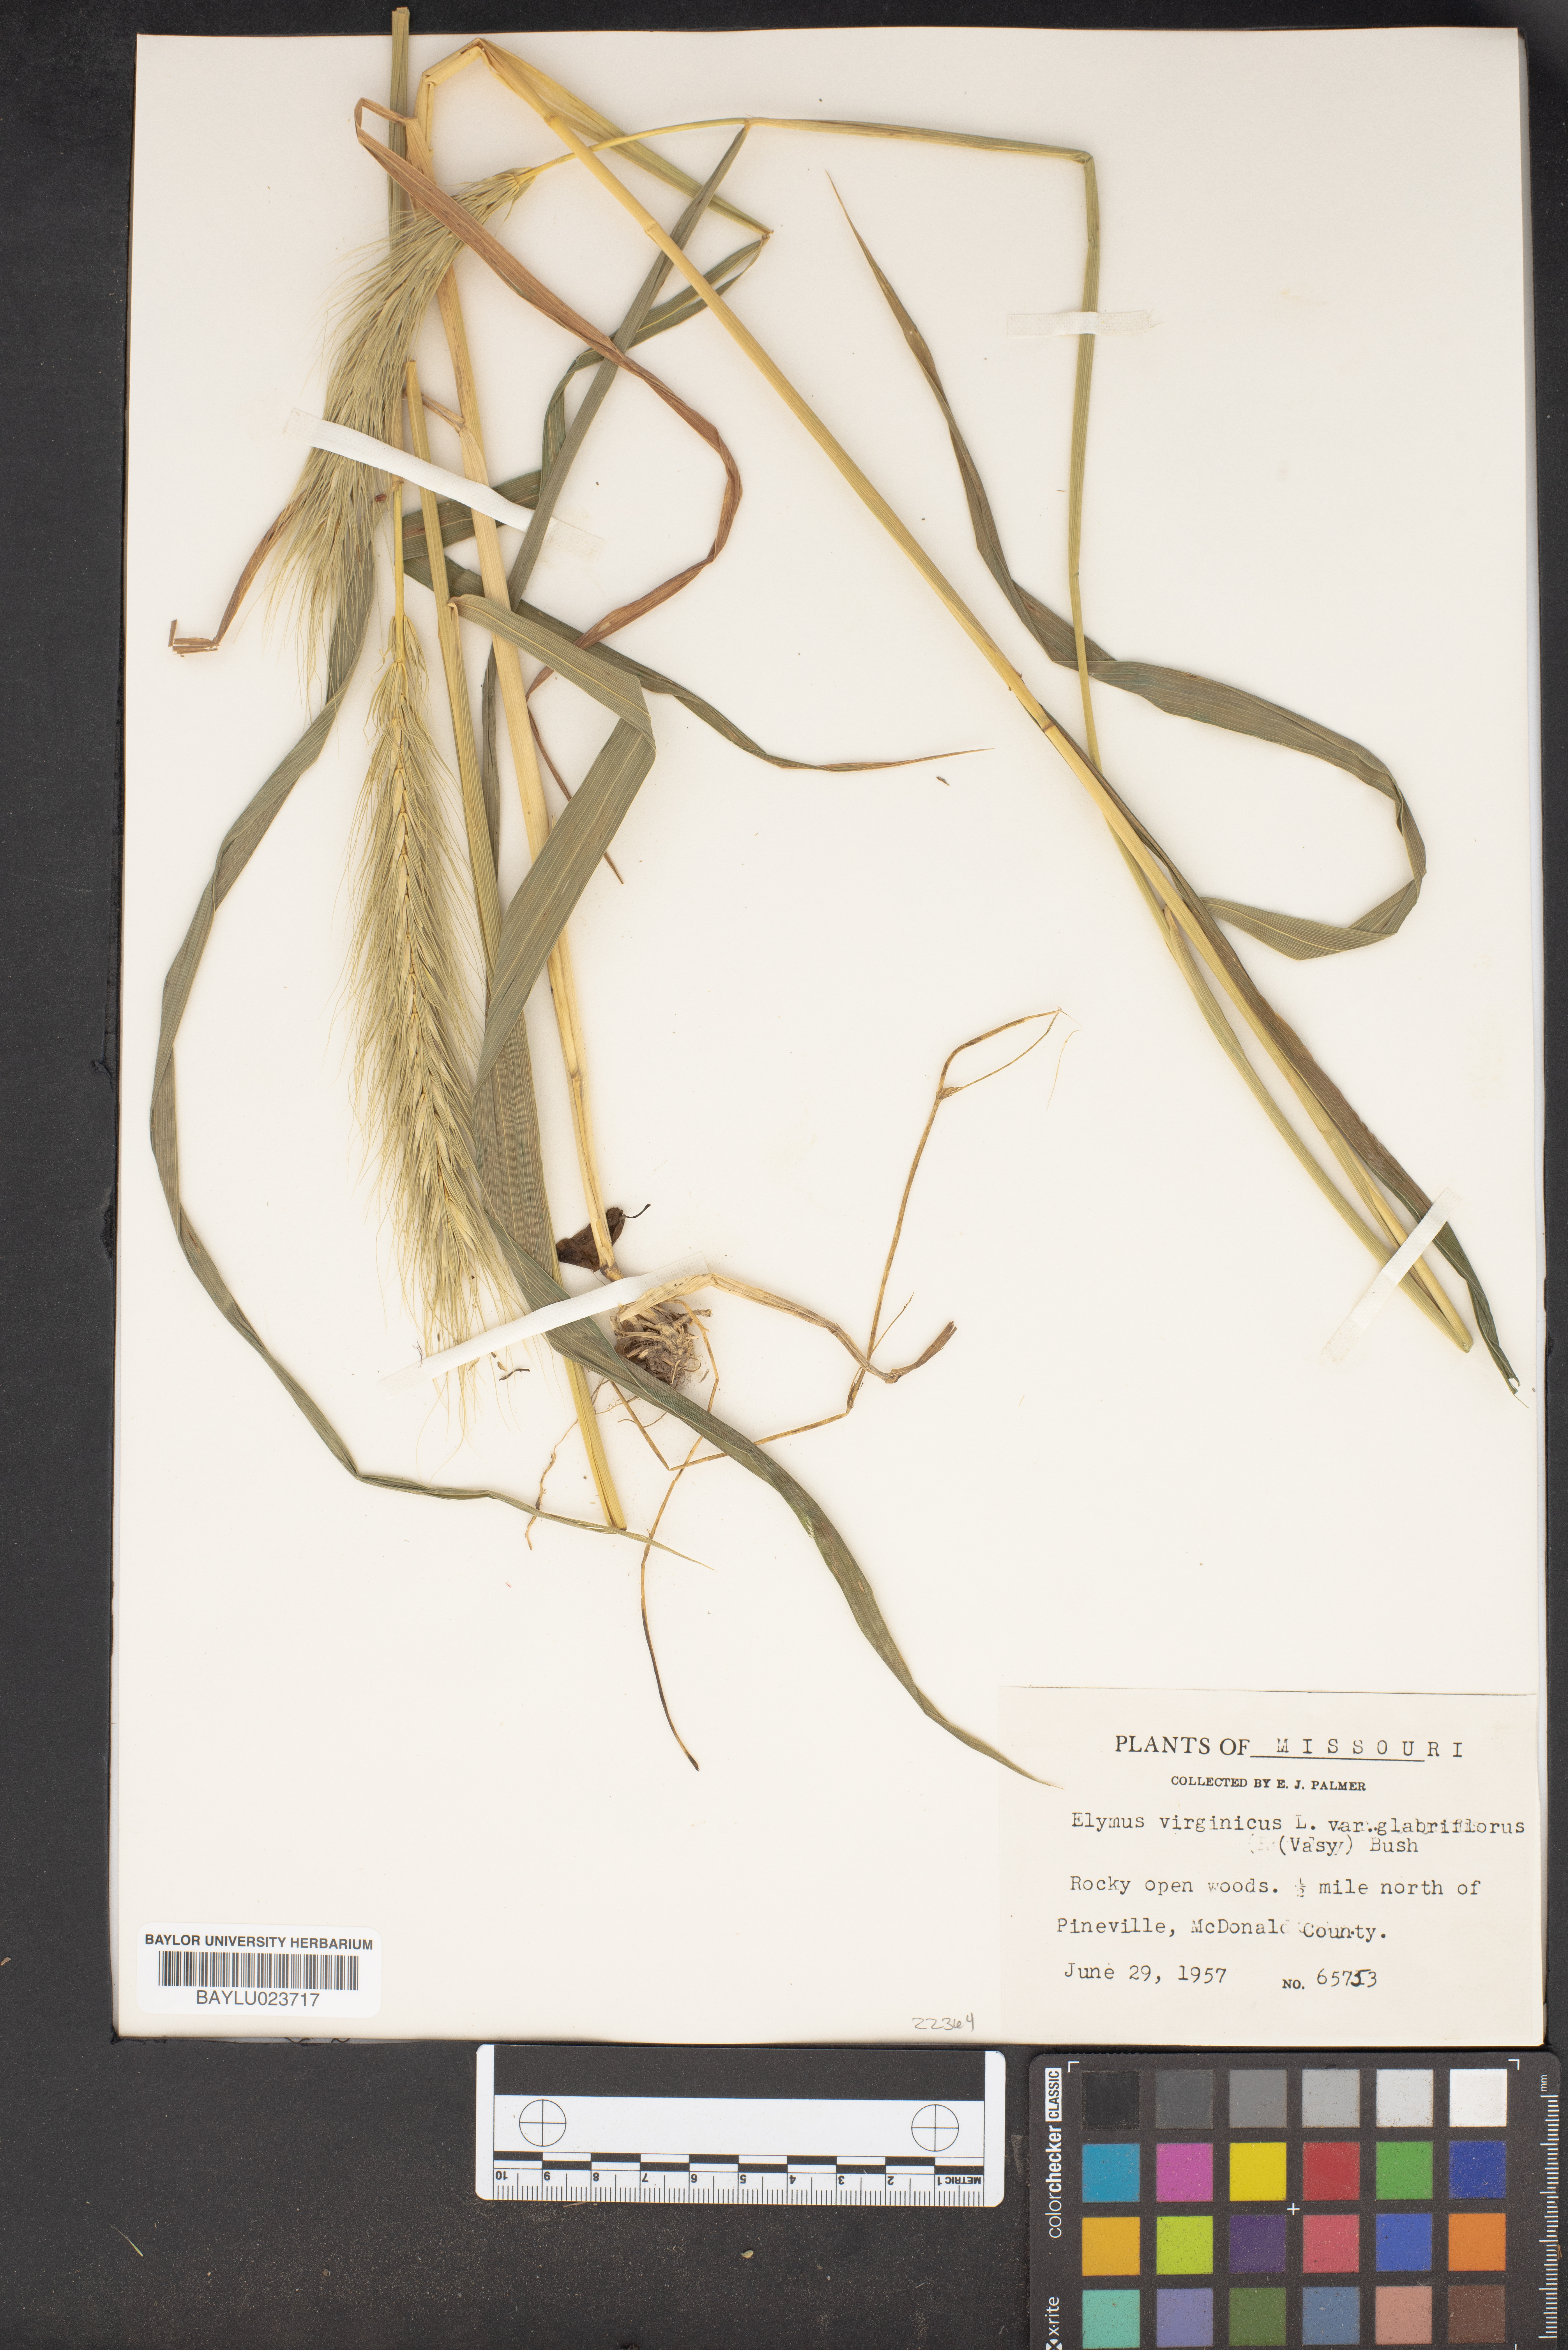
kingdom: Plantae
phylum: Tracheophyta
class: Liliopsida
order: Poales
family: Poaceae
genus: Elymus
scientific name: Elymus virginicus
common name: Common eastern wildrye
